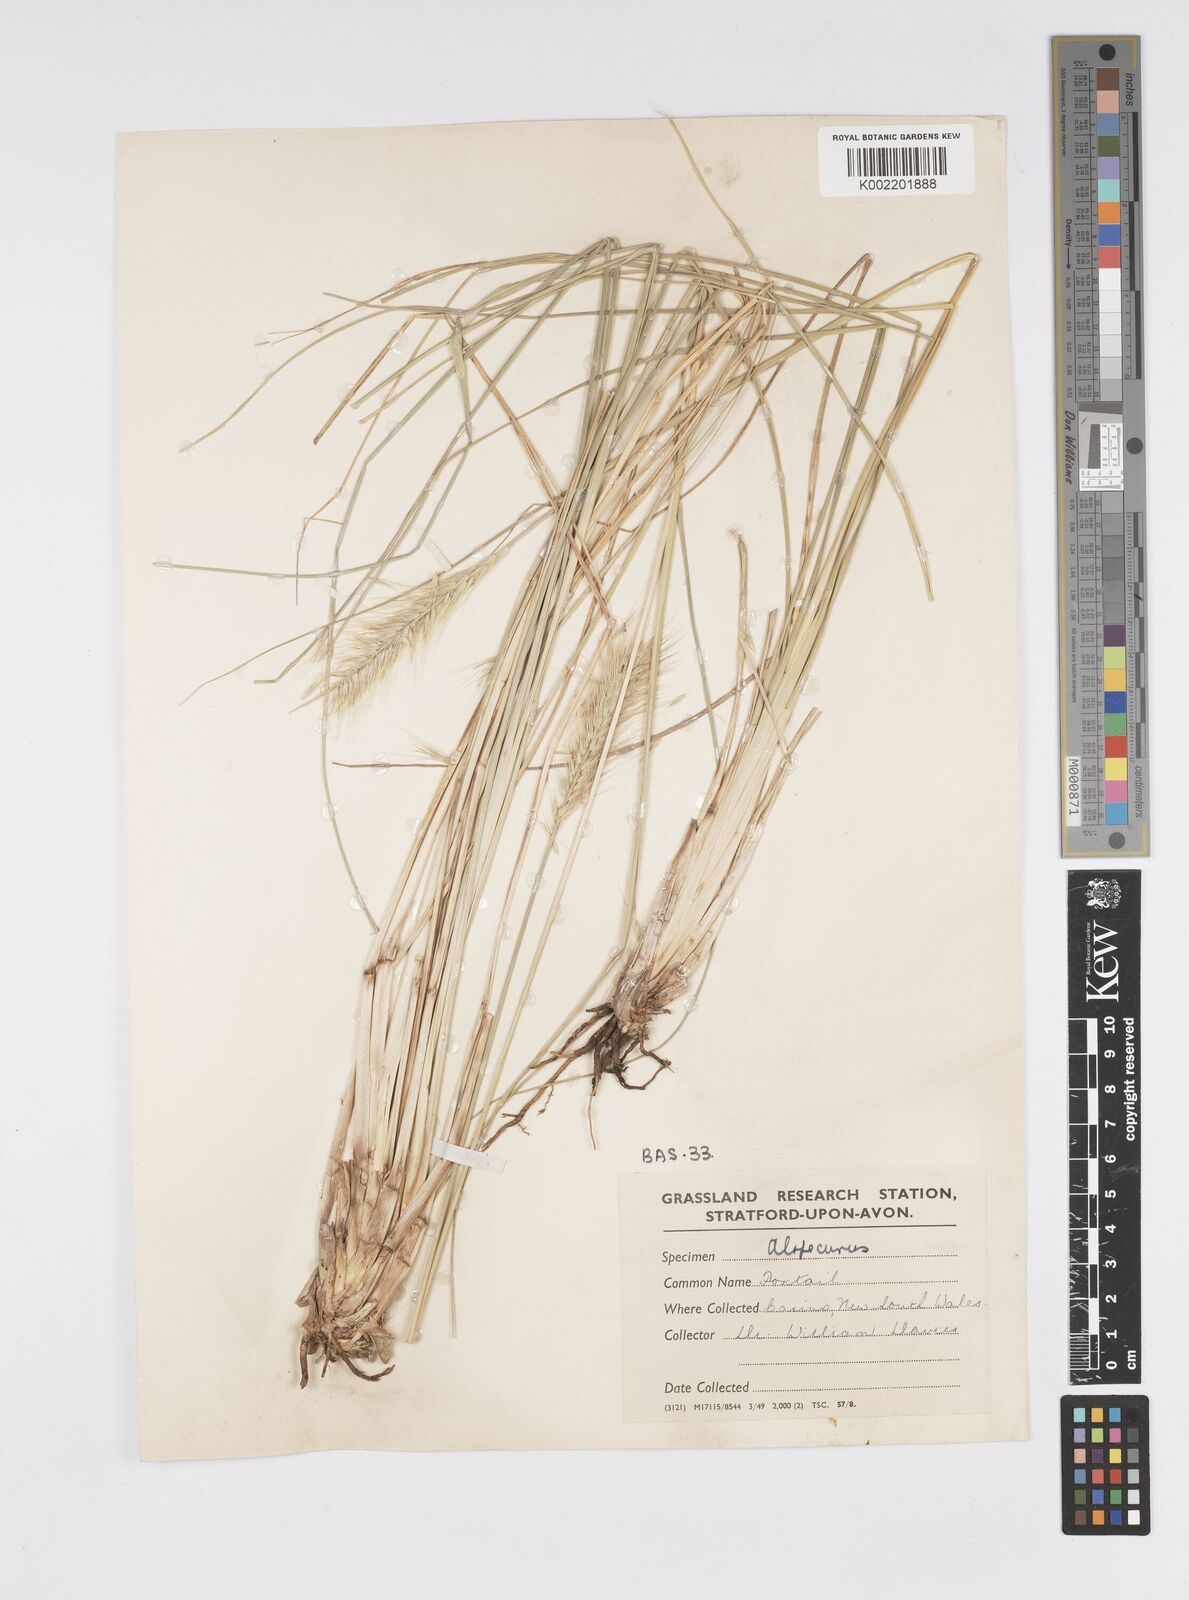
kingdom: Plantae
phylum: Tracheophyta
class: Liliopsida
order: Poales
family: Poaceae
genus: Cenchrus
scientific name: Cenchrus alopecuroides
